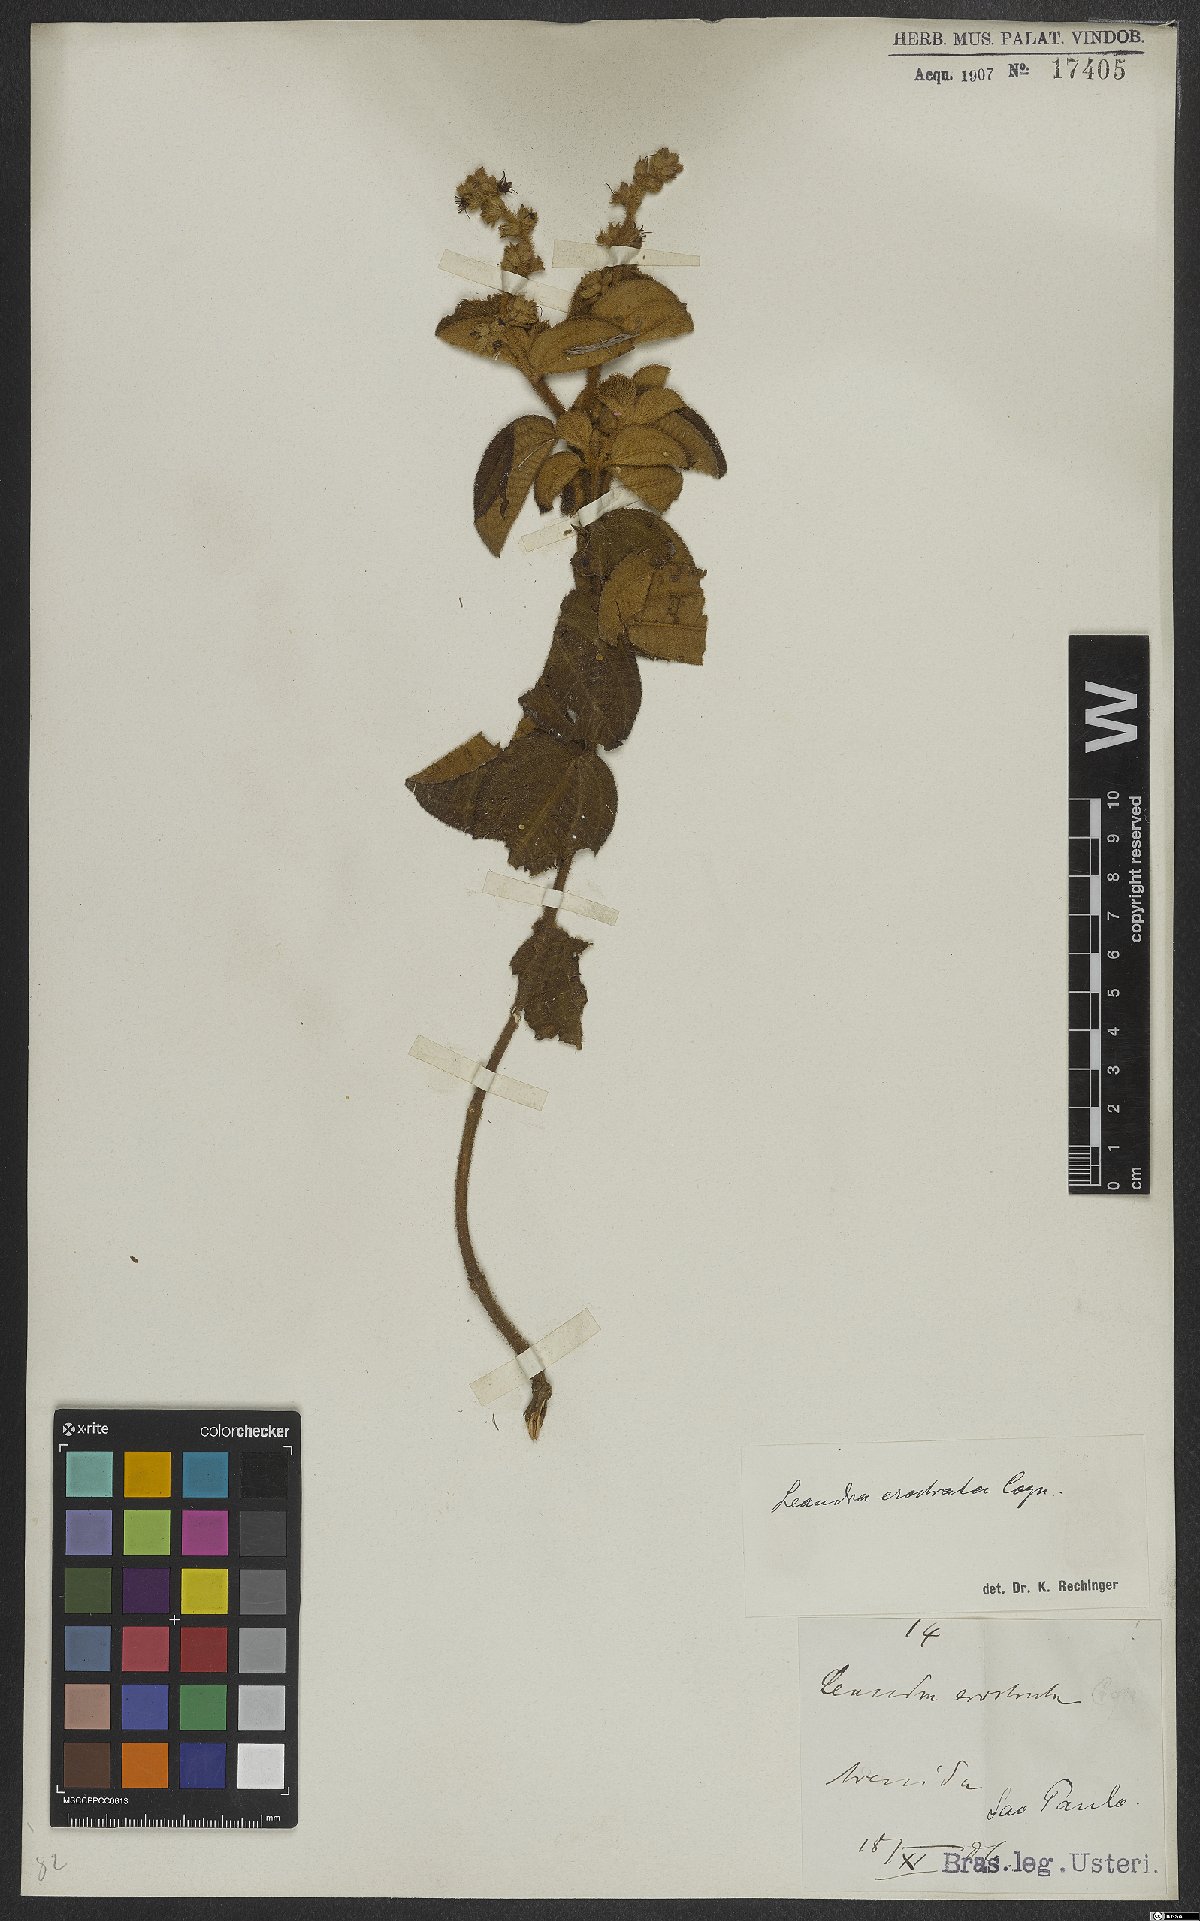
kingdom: Plantae
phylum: Tracheophyta
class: Magnoliopsida
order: Myrtales
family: Melastomataceae
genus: Miconia
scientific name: Miconia erostrata
